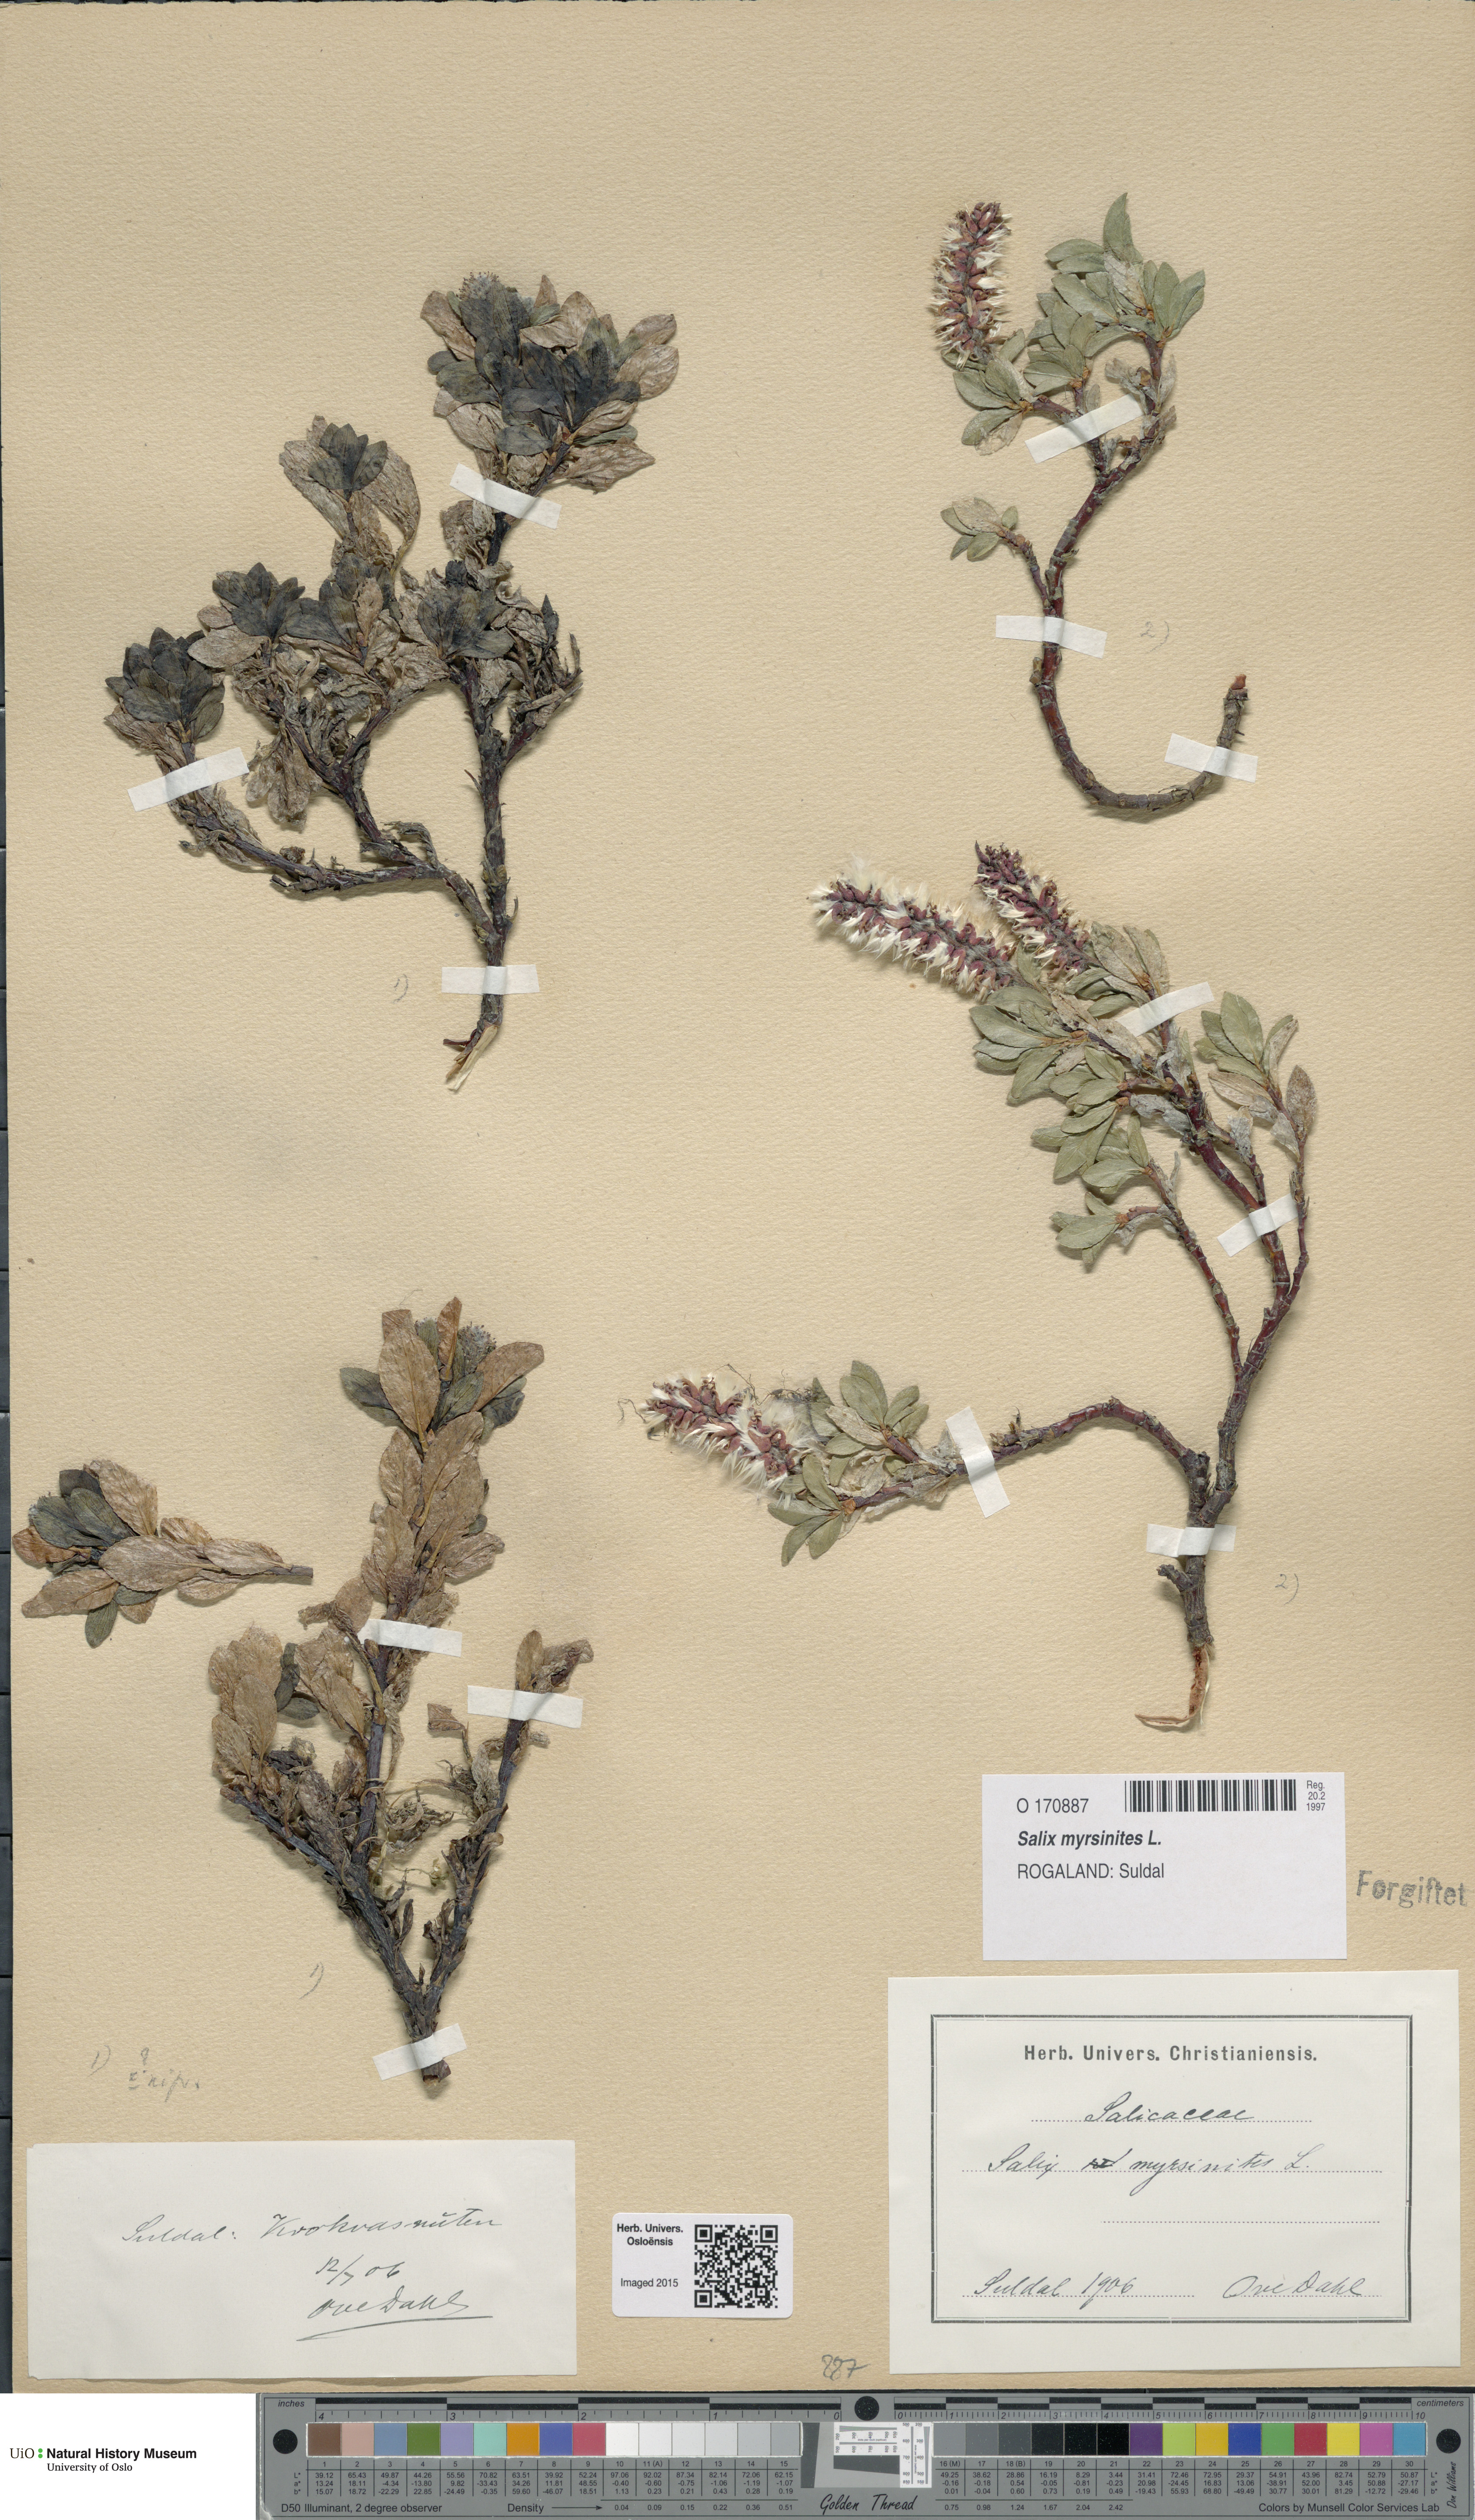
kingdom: Plantae
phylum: Tracheophyta
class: Magnoliopsida
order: Malpighiales
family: Salicaceae
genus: Salix
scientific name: Salix myrsinites
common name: Myrtle willow
